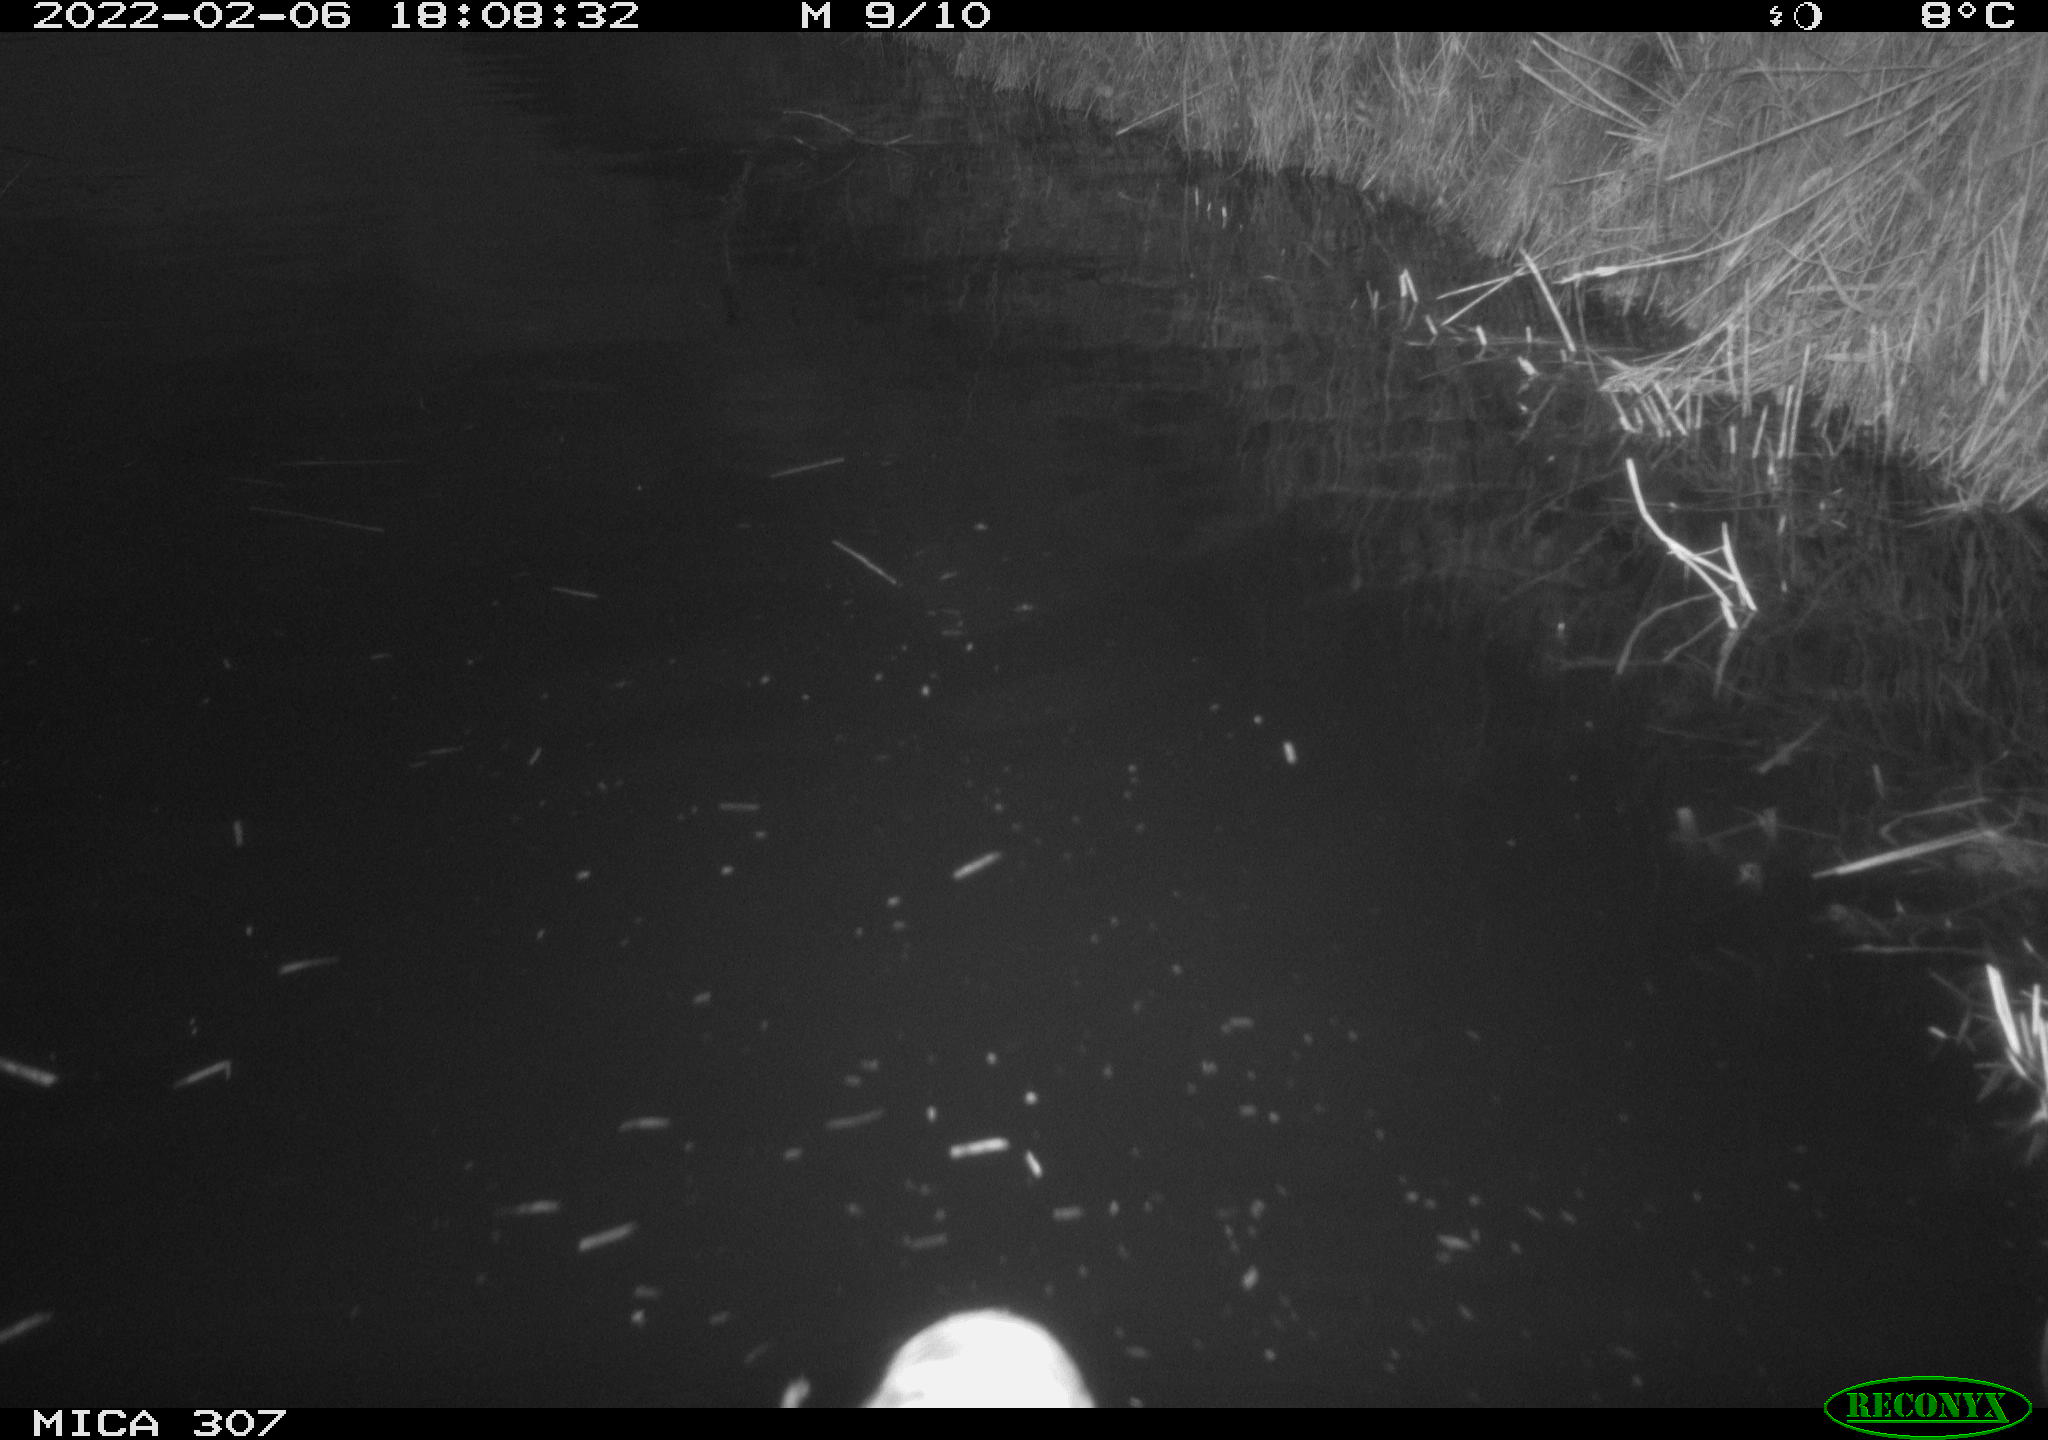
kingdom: Animalia
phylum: Chordata
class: Aves
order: Anseriformes
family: Anatidae
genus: Anas
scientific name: Anas platyrhynchos
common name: Mallard
